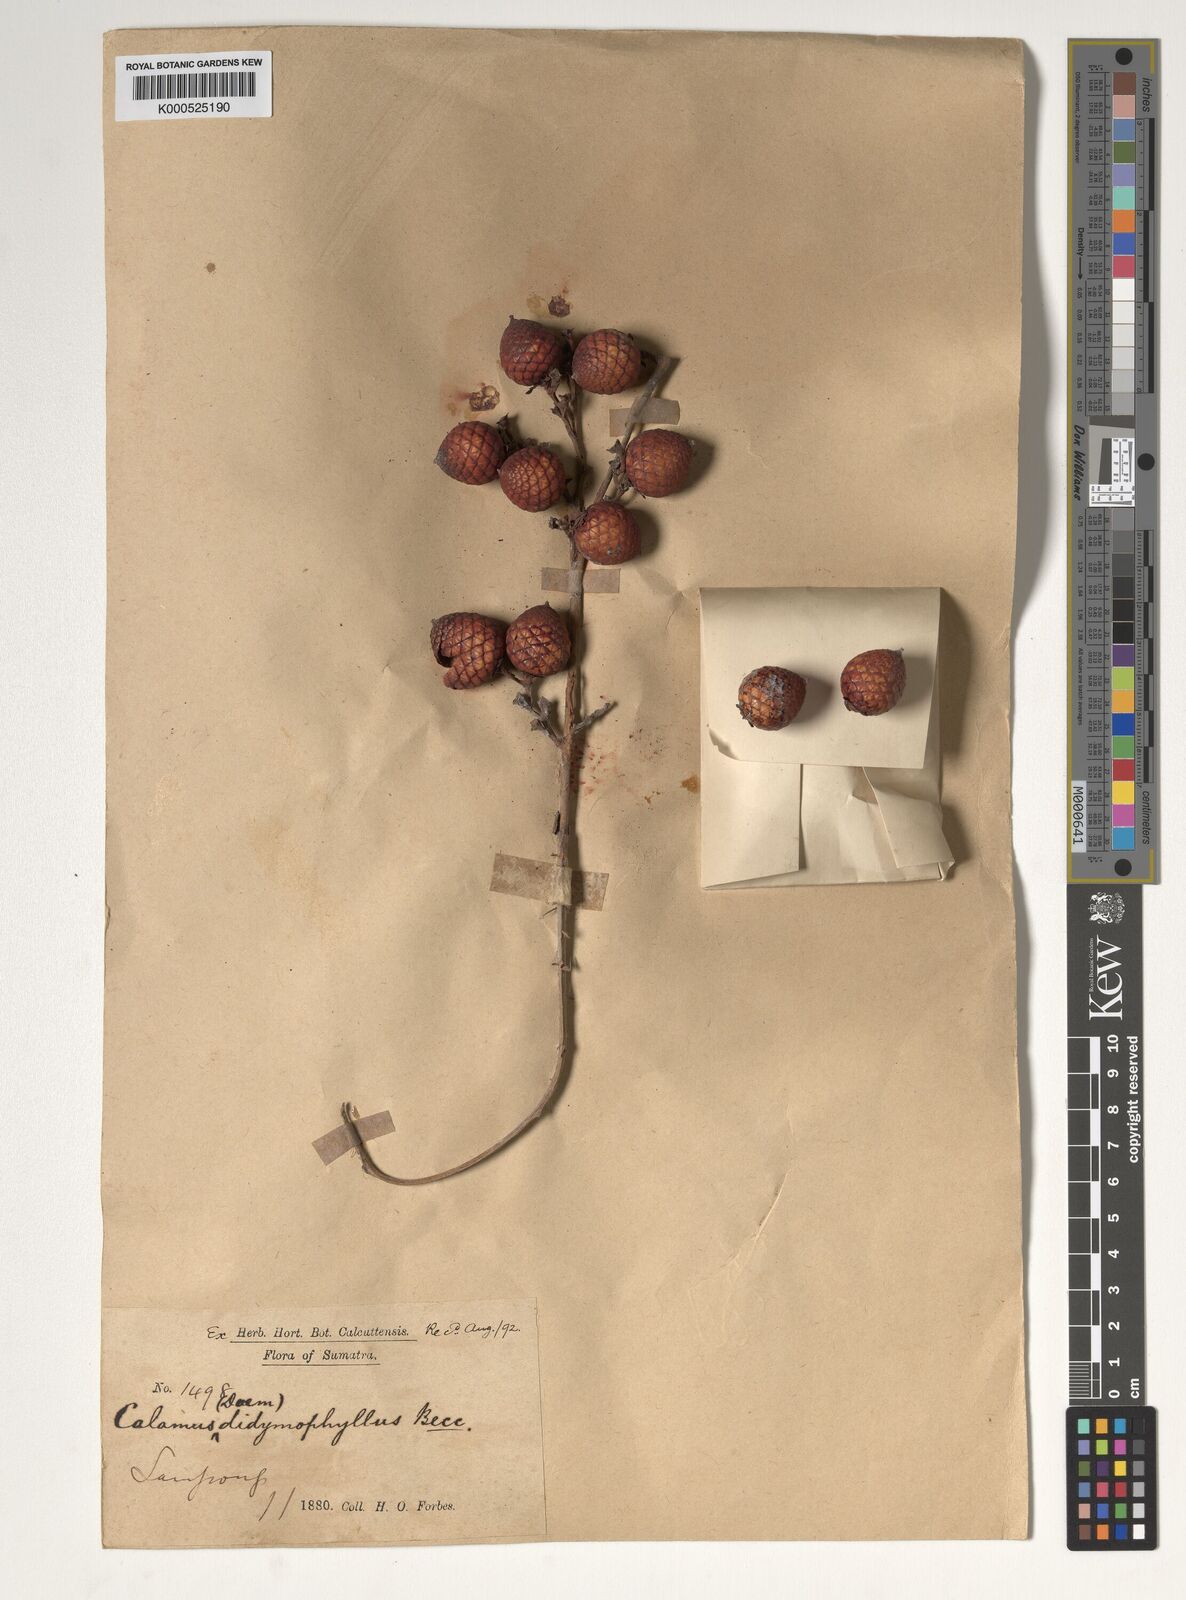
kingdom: Plantae
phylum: Tracheophyta
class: Liliopsida
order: Arecales
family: Arecaceae
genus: Calamus
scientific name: Calamus gracilipes
